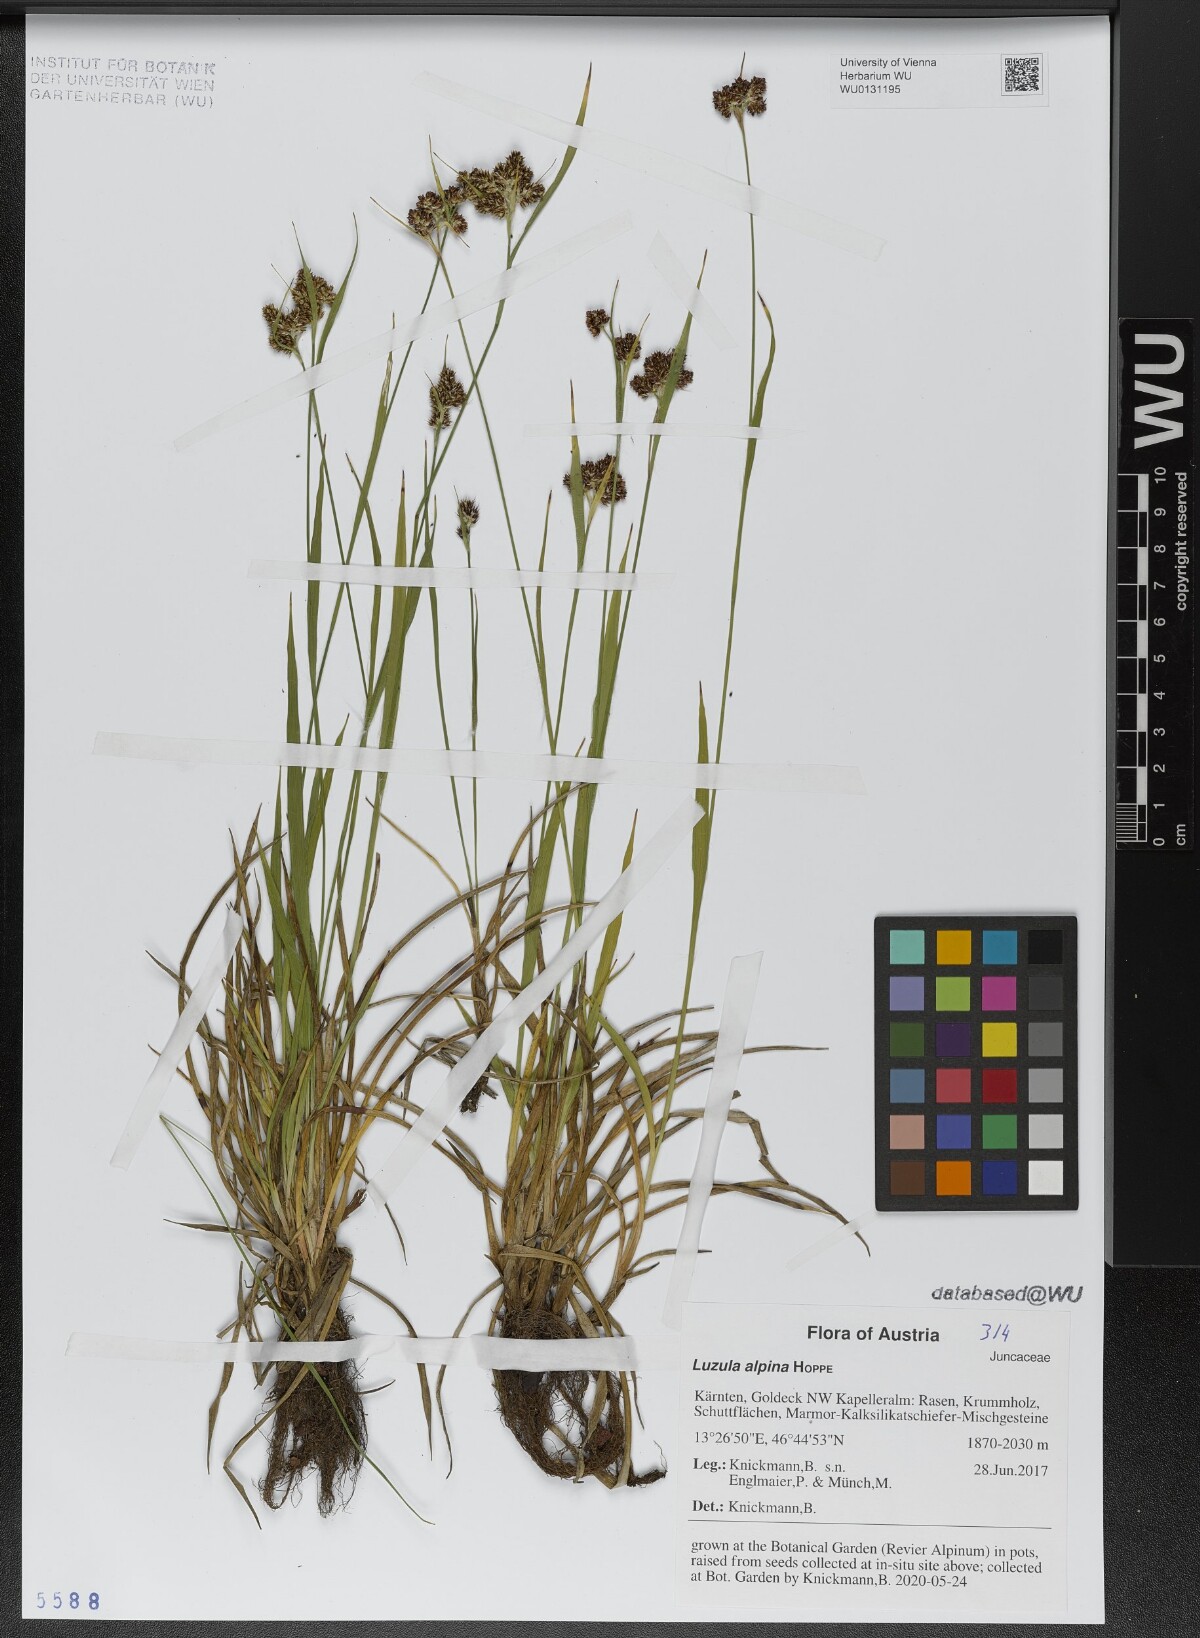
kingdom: Plantae
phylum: Tracheophyta
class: Liliopsida
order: Poales
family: Juncaceae
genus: Luzula
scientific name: Luzula alpina
